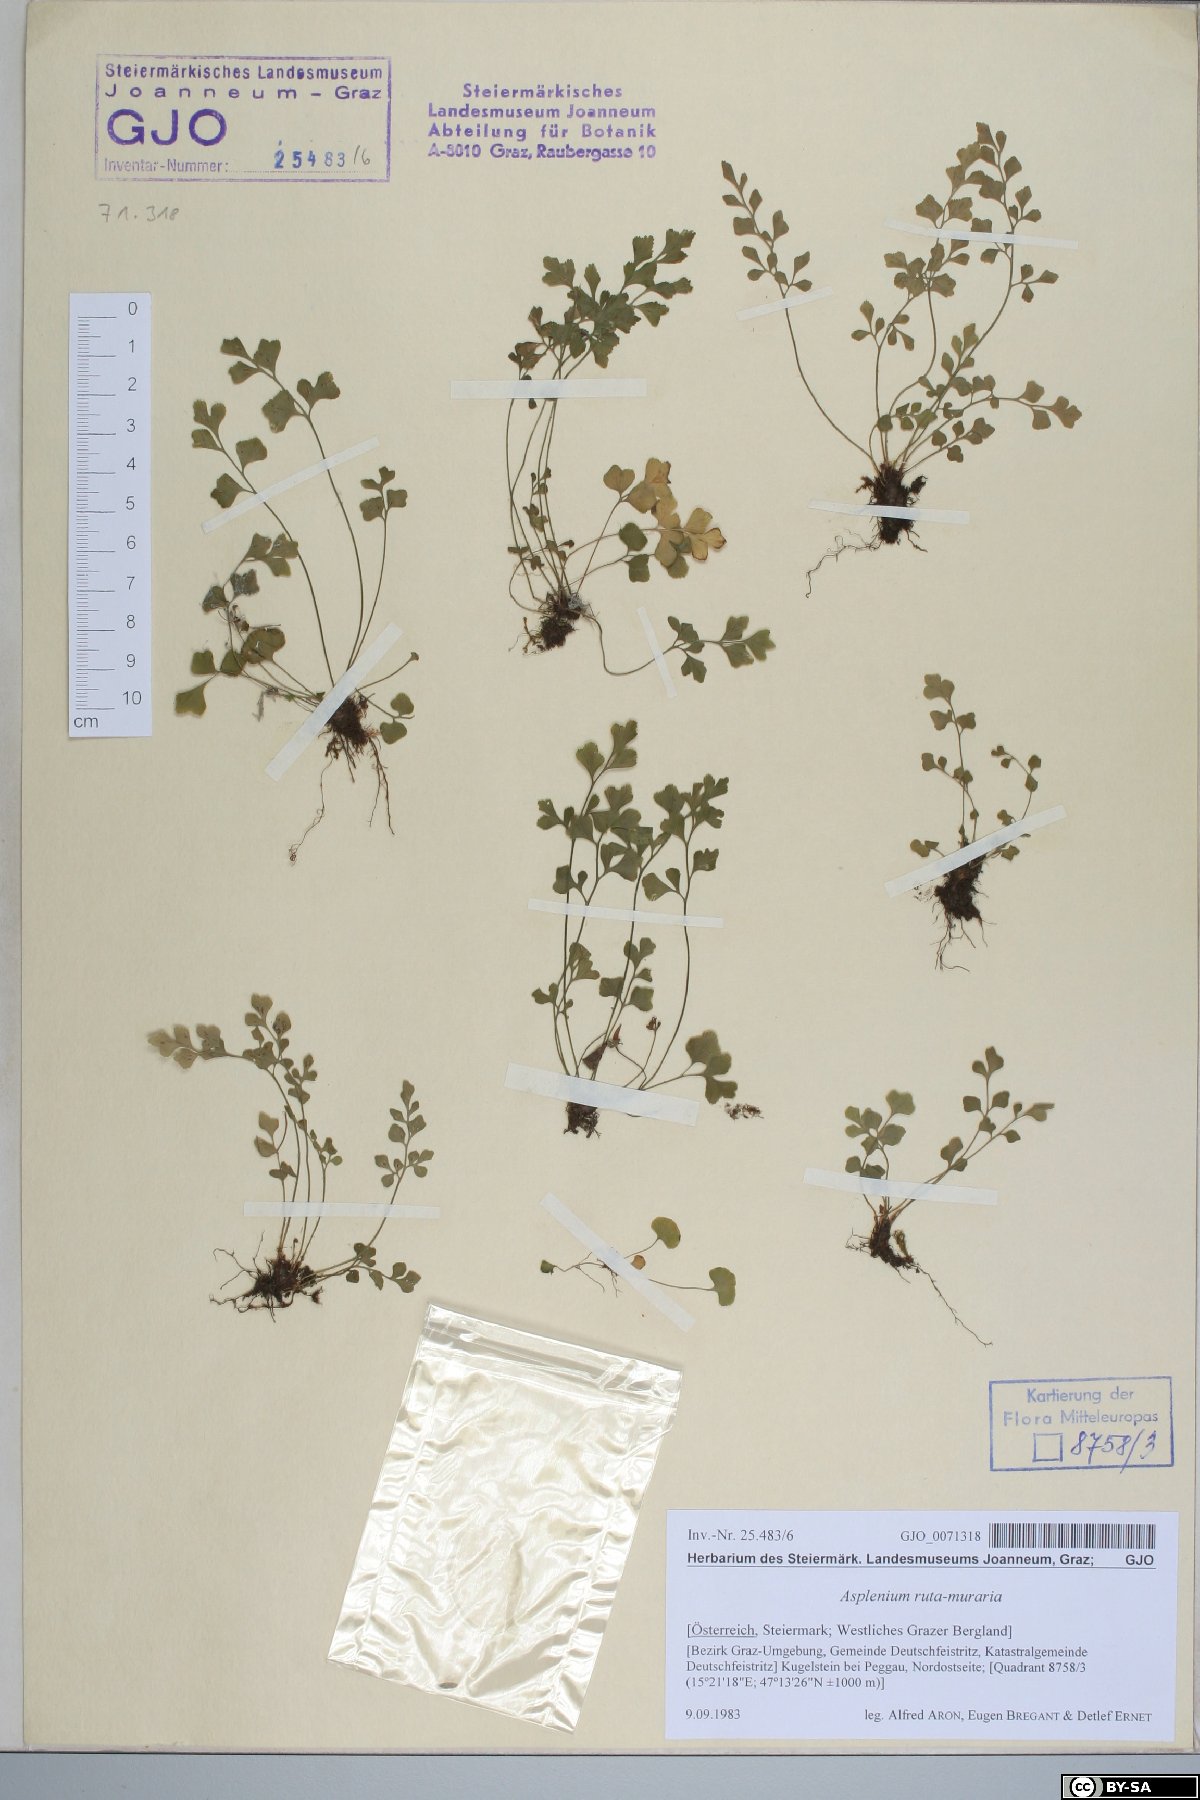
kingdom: Plantae
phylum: Tracheophyta
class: Polypodiopsida
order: Polypodiales
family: Aspleniaceae
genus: Asplenium
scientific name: Asplenium ruta-muraria
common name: Wall-rue
